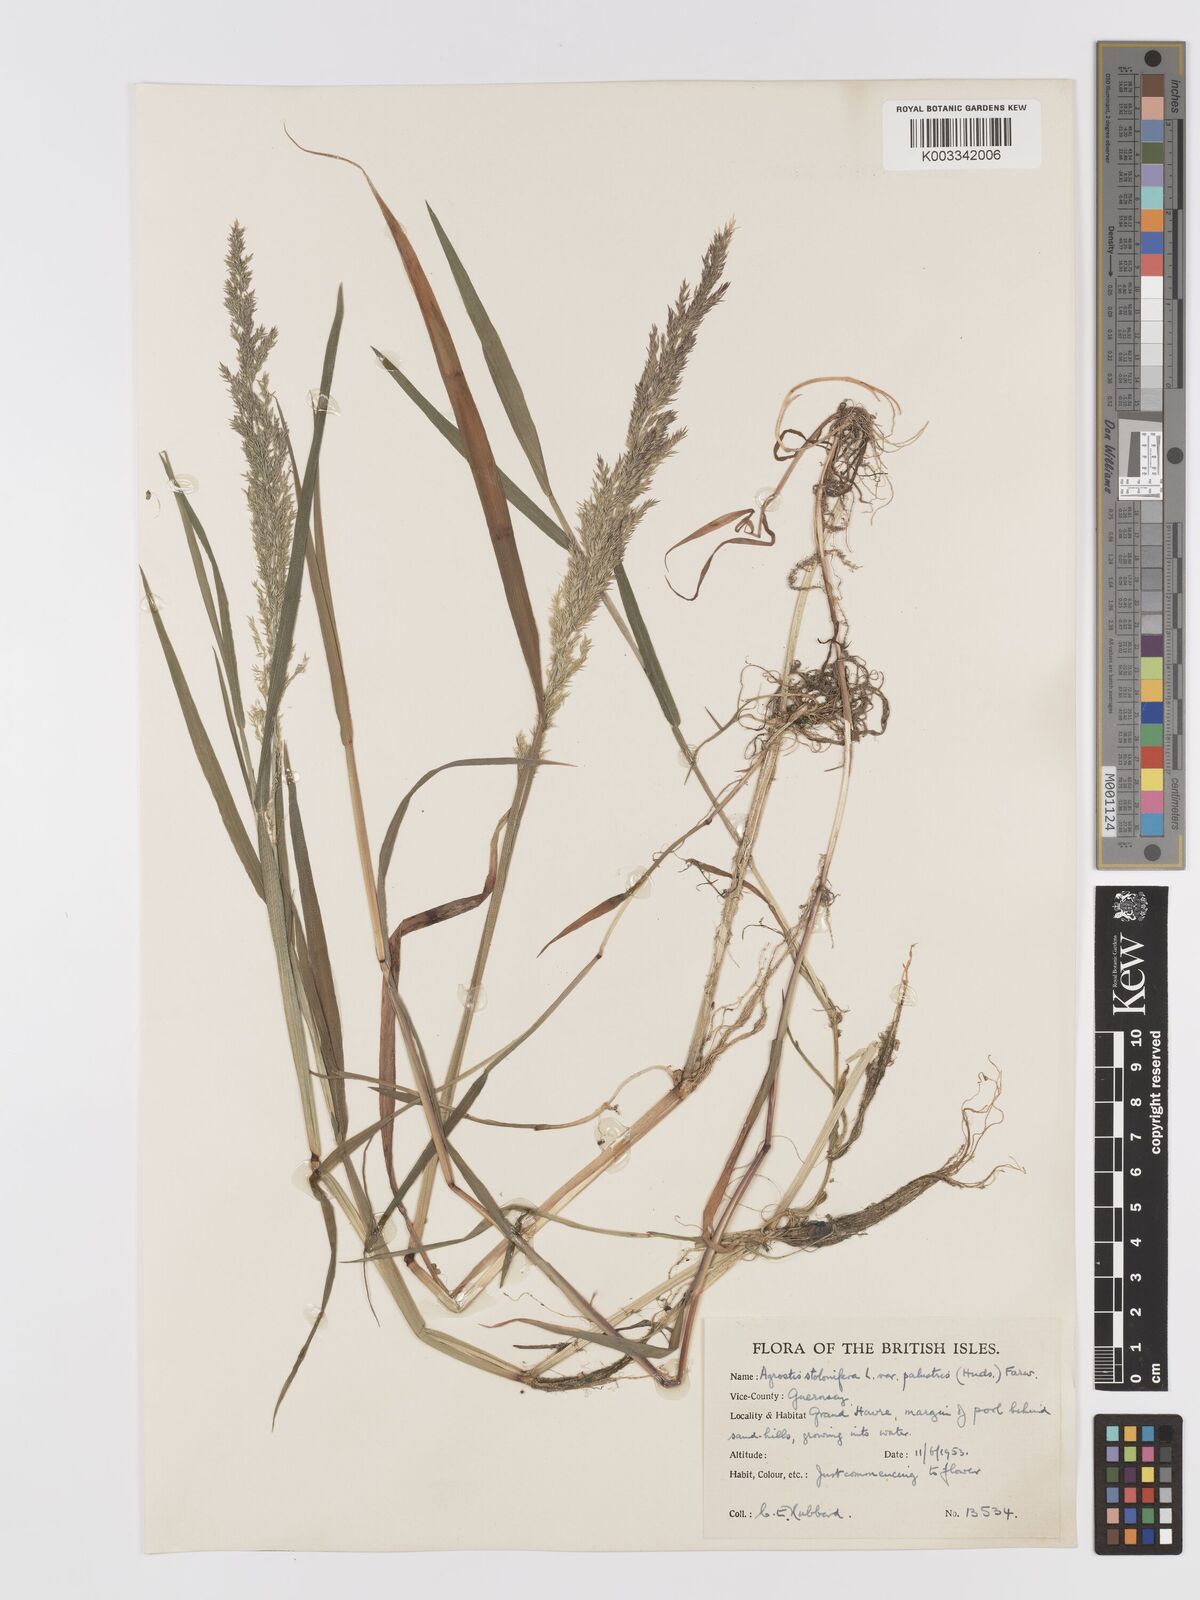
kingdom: Plantae
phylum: Tracheophyta
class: Liliopsida
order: Poales
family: Poaceae
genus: Agrostis
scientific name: Agrostis stolonifera
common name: Creeping bentgrass
